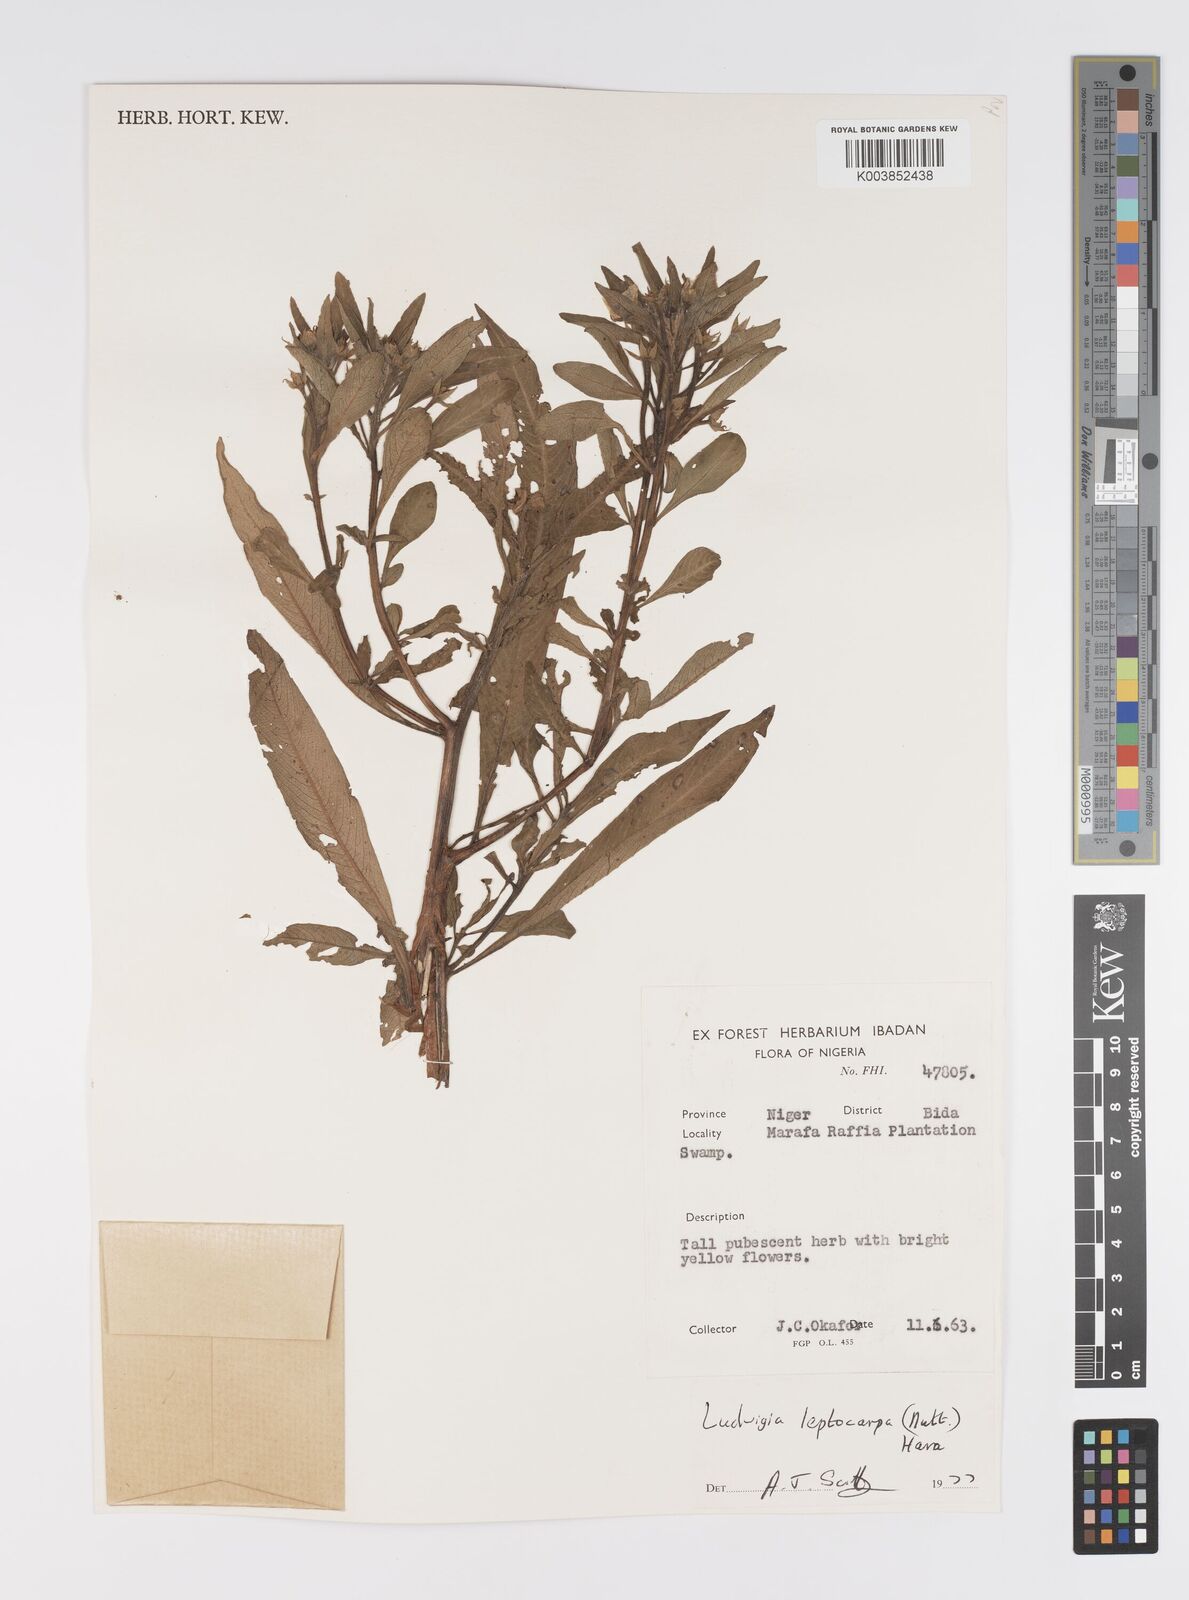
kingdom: Plantae
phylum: Tracheophyta
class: Magnoliopsida
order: Myrtales
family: Onagraceae
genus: Ludwigia
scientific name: Ludwigia leptocarpa
